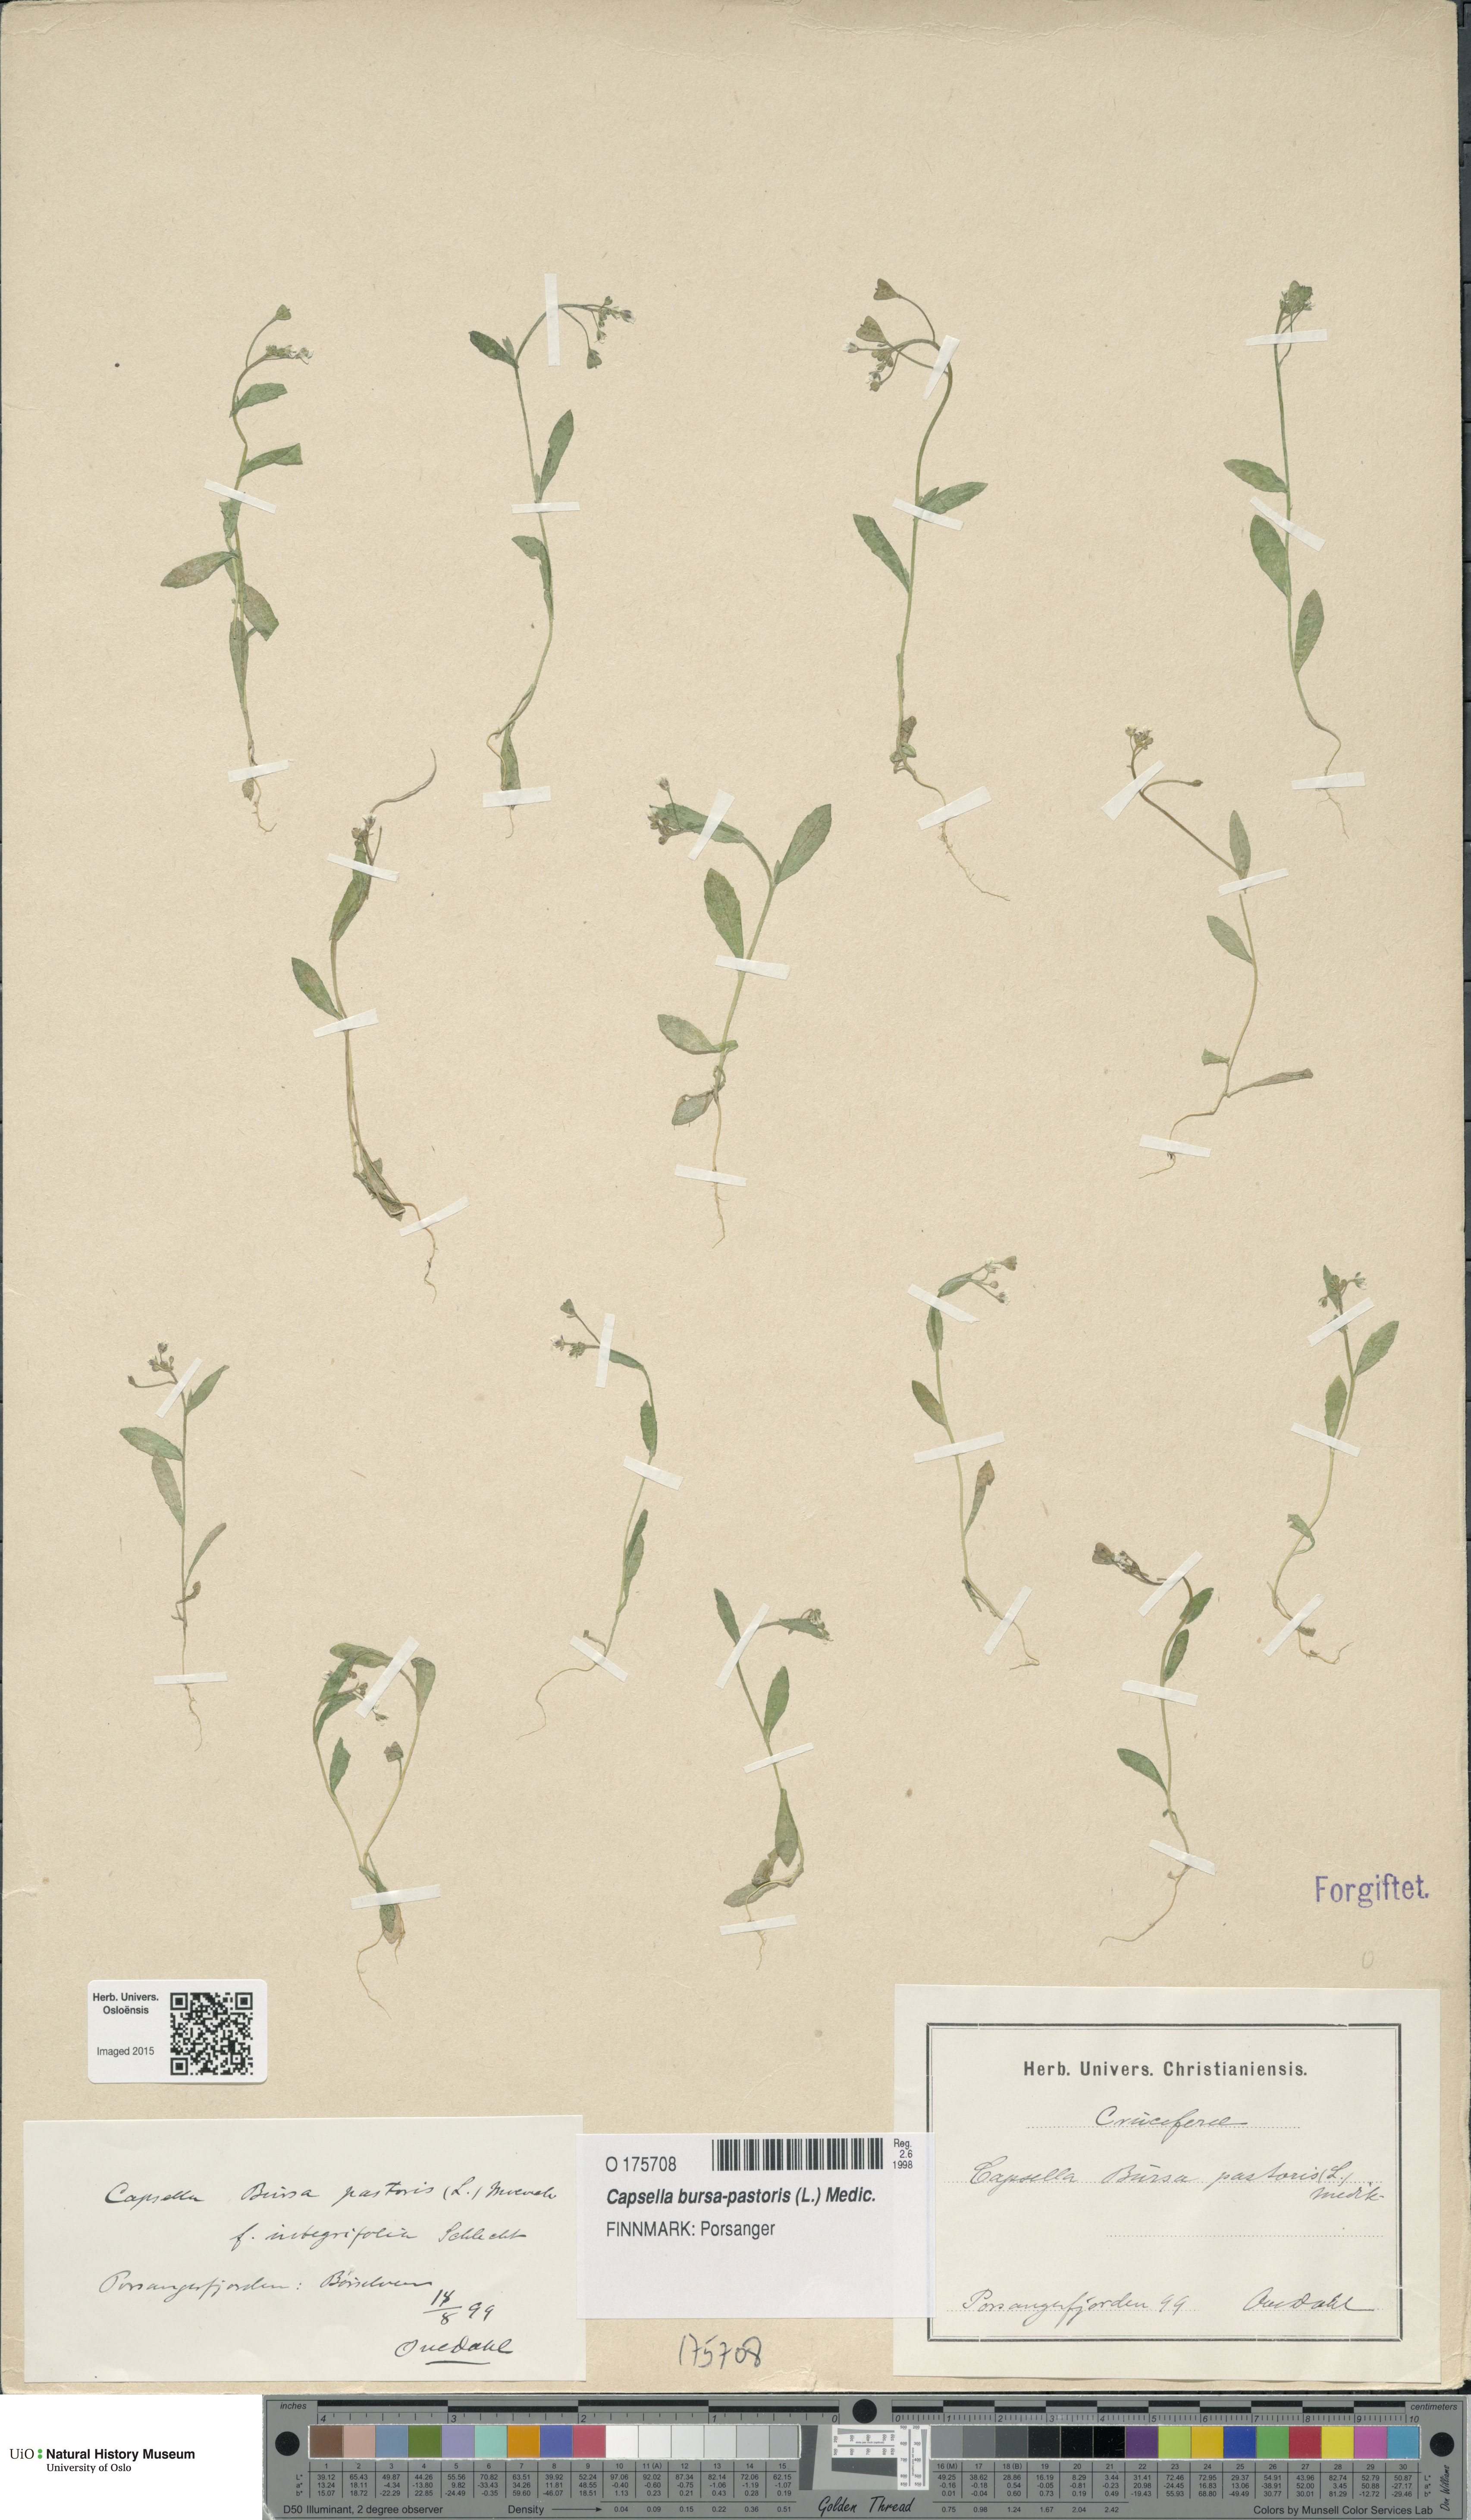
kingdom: Plantae
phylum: Tracheophyta
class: Magnoliopsida
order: Brassicales
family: Brassicaceae
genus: Capsella
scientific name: Capsella bursa-pastoris
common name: Shepherd's purse
